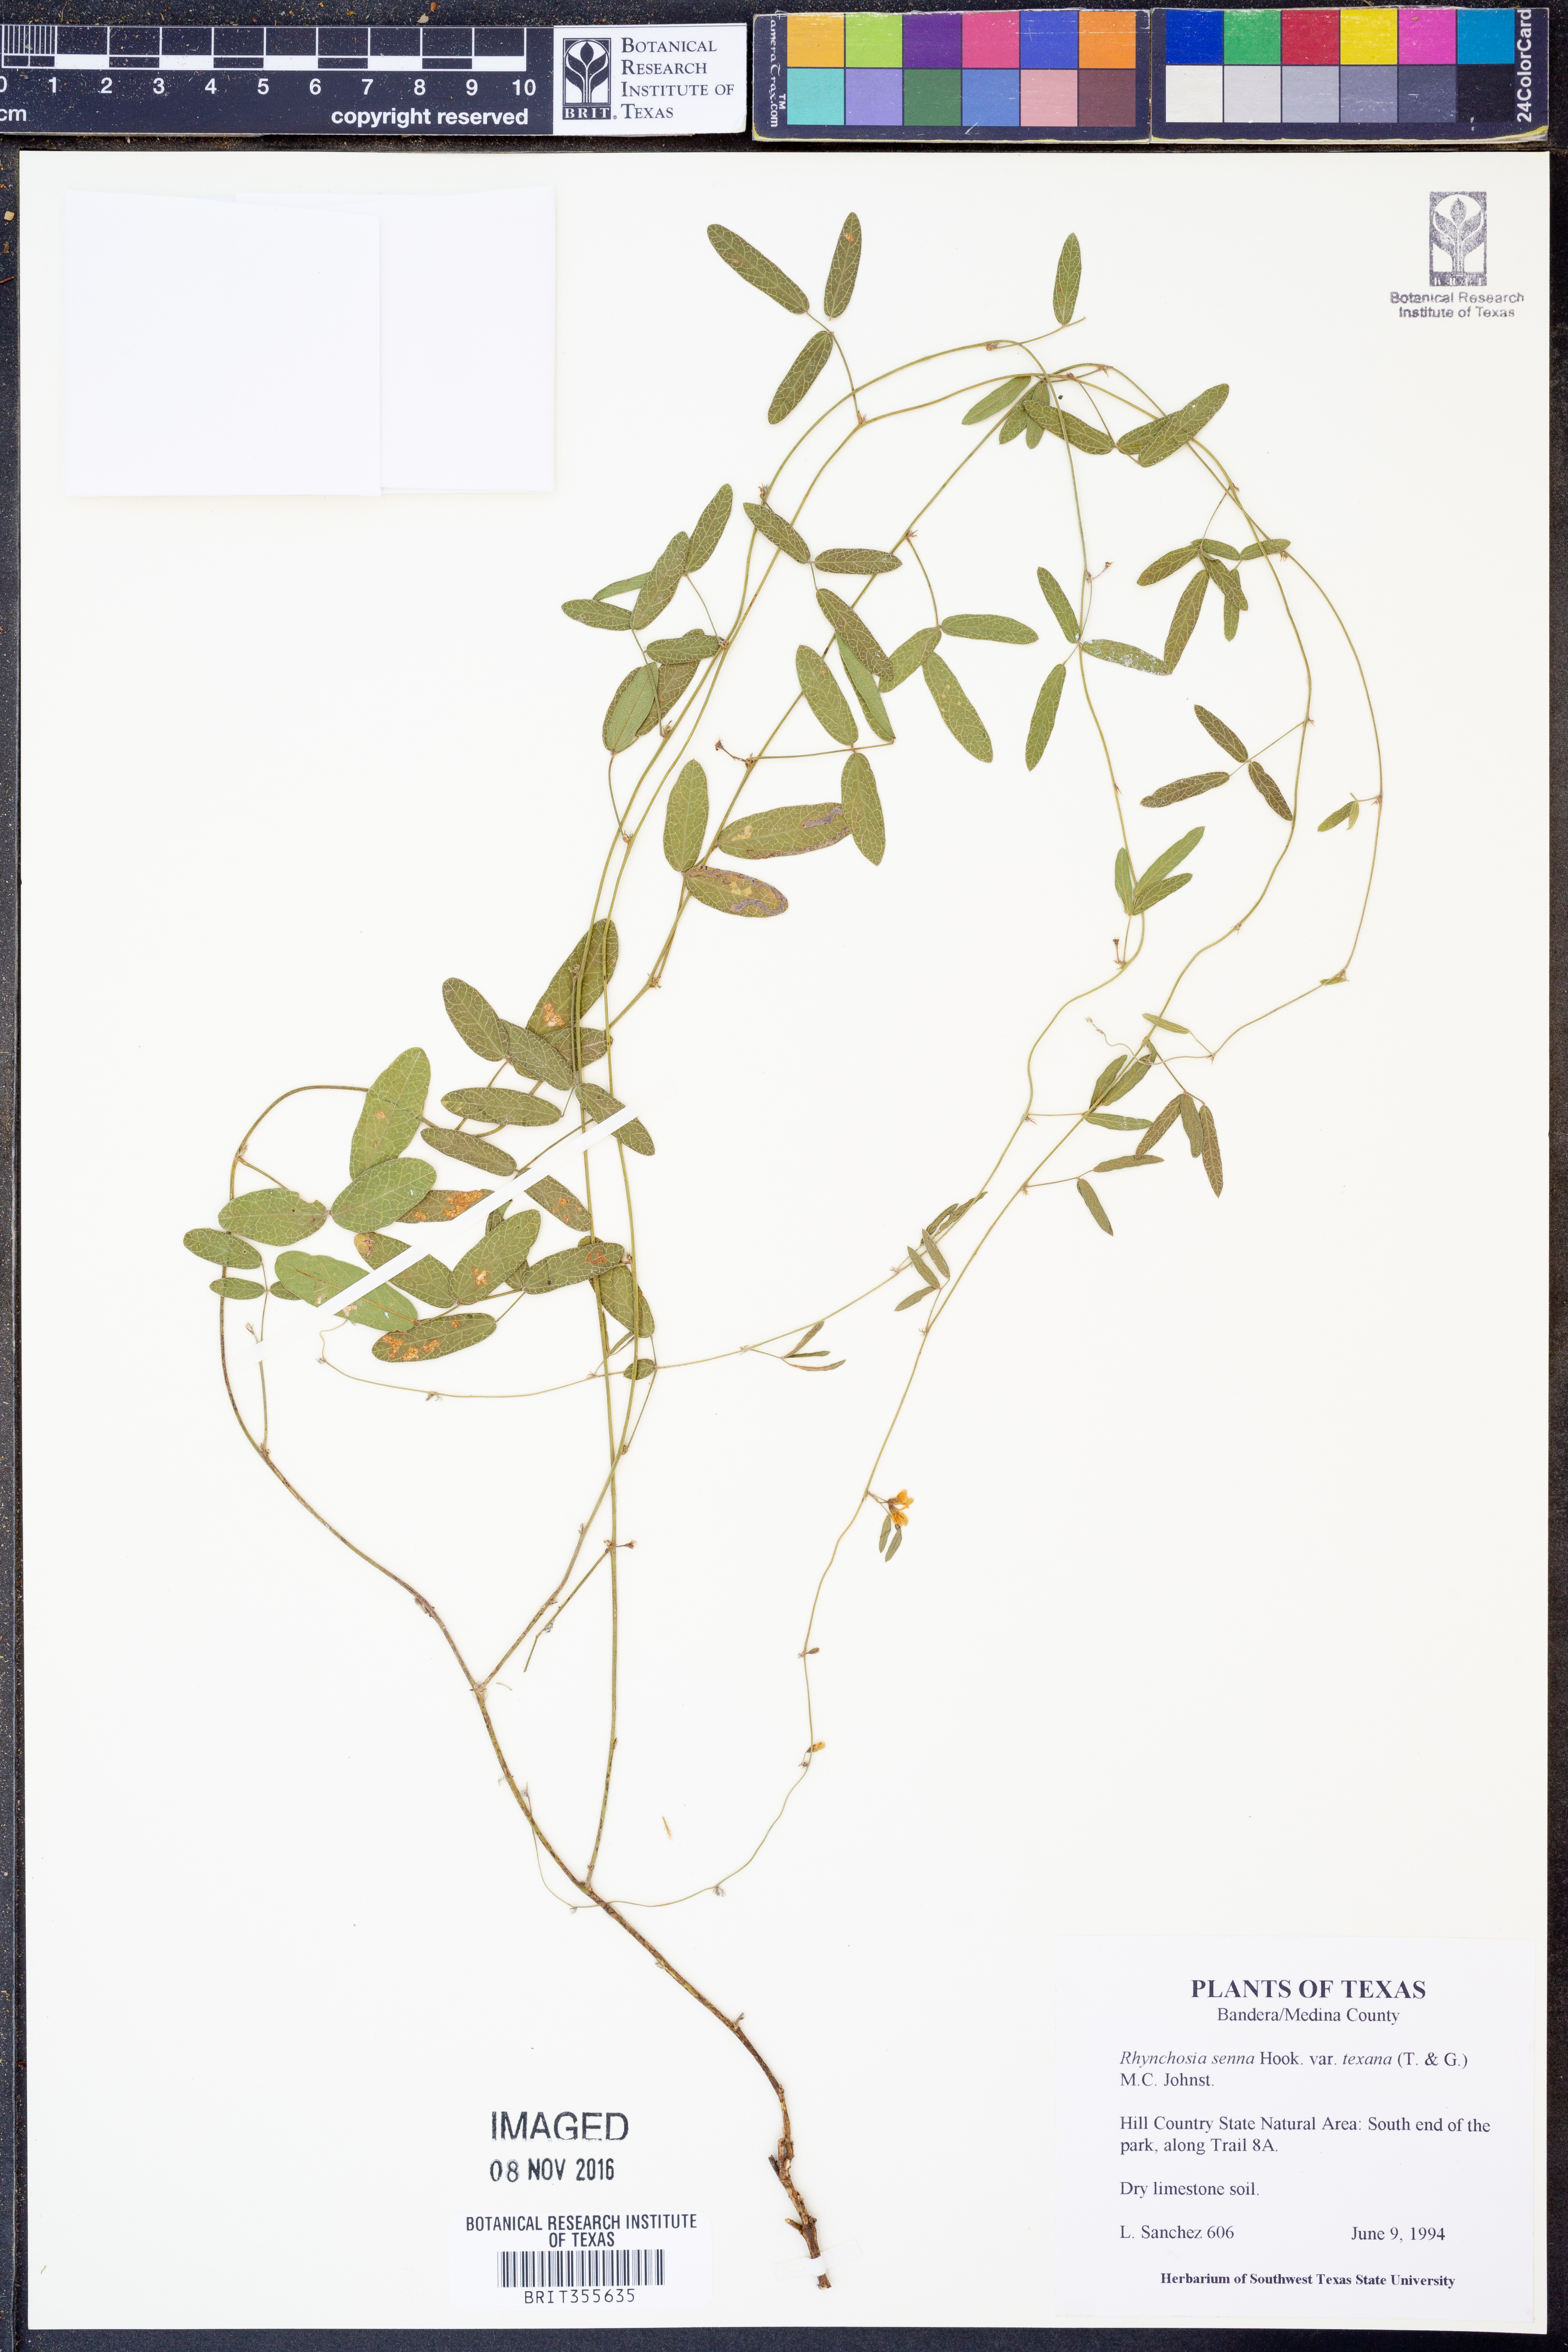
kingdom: Plantae
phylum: Tracheophyta
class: Magnoliopsida
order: Fabales
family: Fabaceae
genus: Rhynchosia
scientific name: Rhynchosia senna
